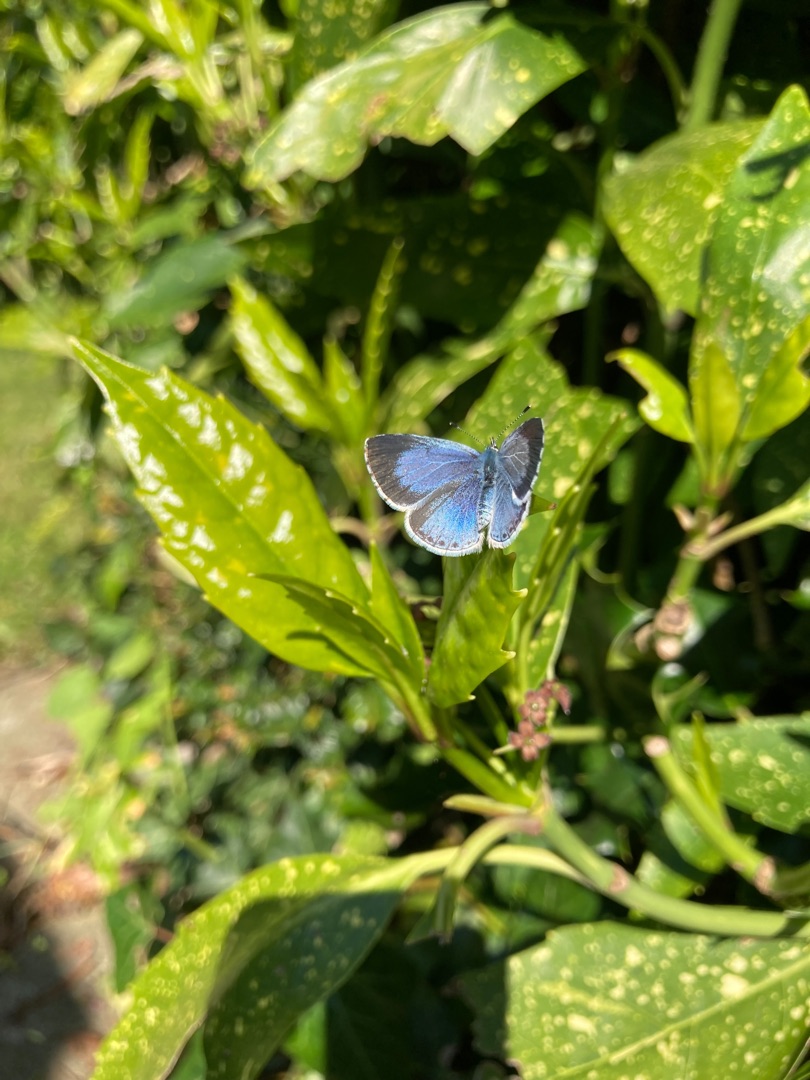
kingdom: Animalia
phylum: Arthropoda
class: Insecta
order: Lepidoptera
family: Lycaenidae
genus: Celastrina
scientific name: Celastrina argiolus
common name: Skovblåfugl
